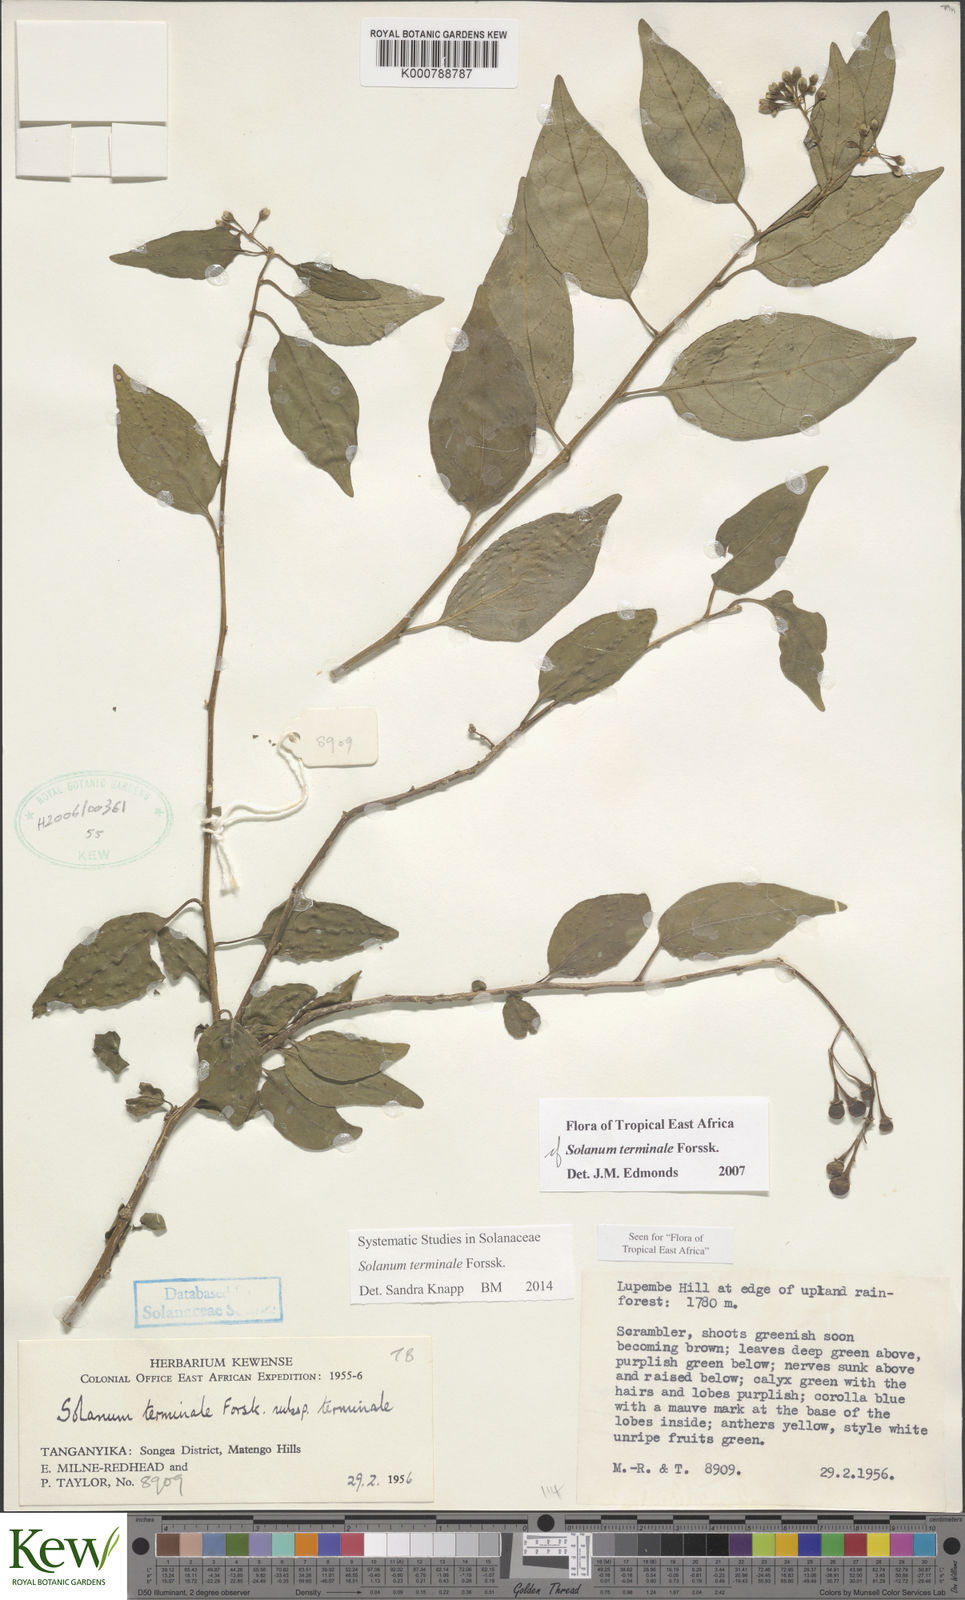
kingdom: Plantae
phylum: Tracheophyta
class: Magnoliopsida
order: Solanales
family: Solanaceae
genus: Solanum
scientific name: Solanum terminale
